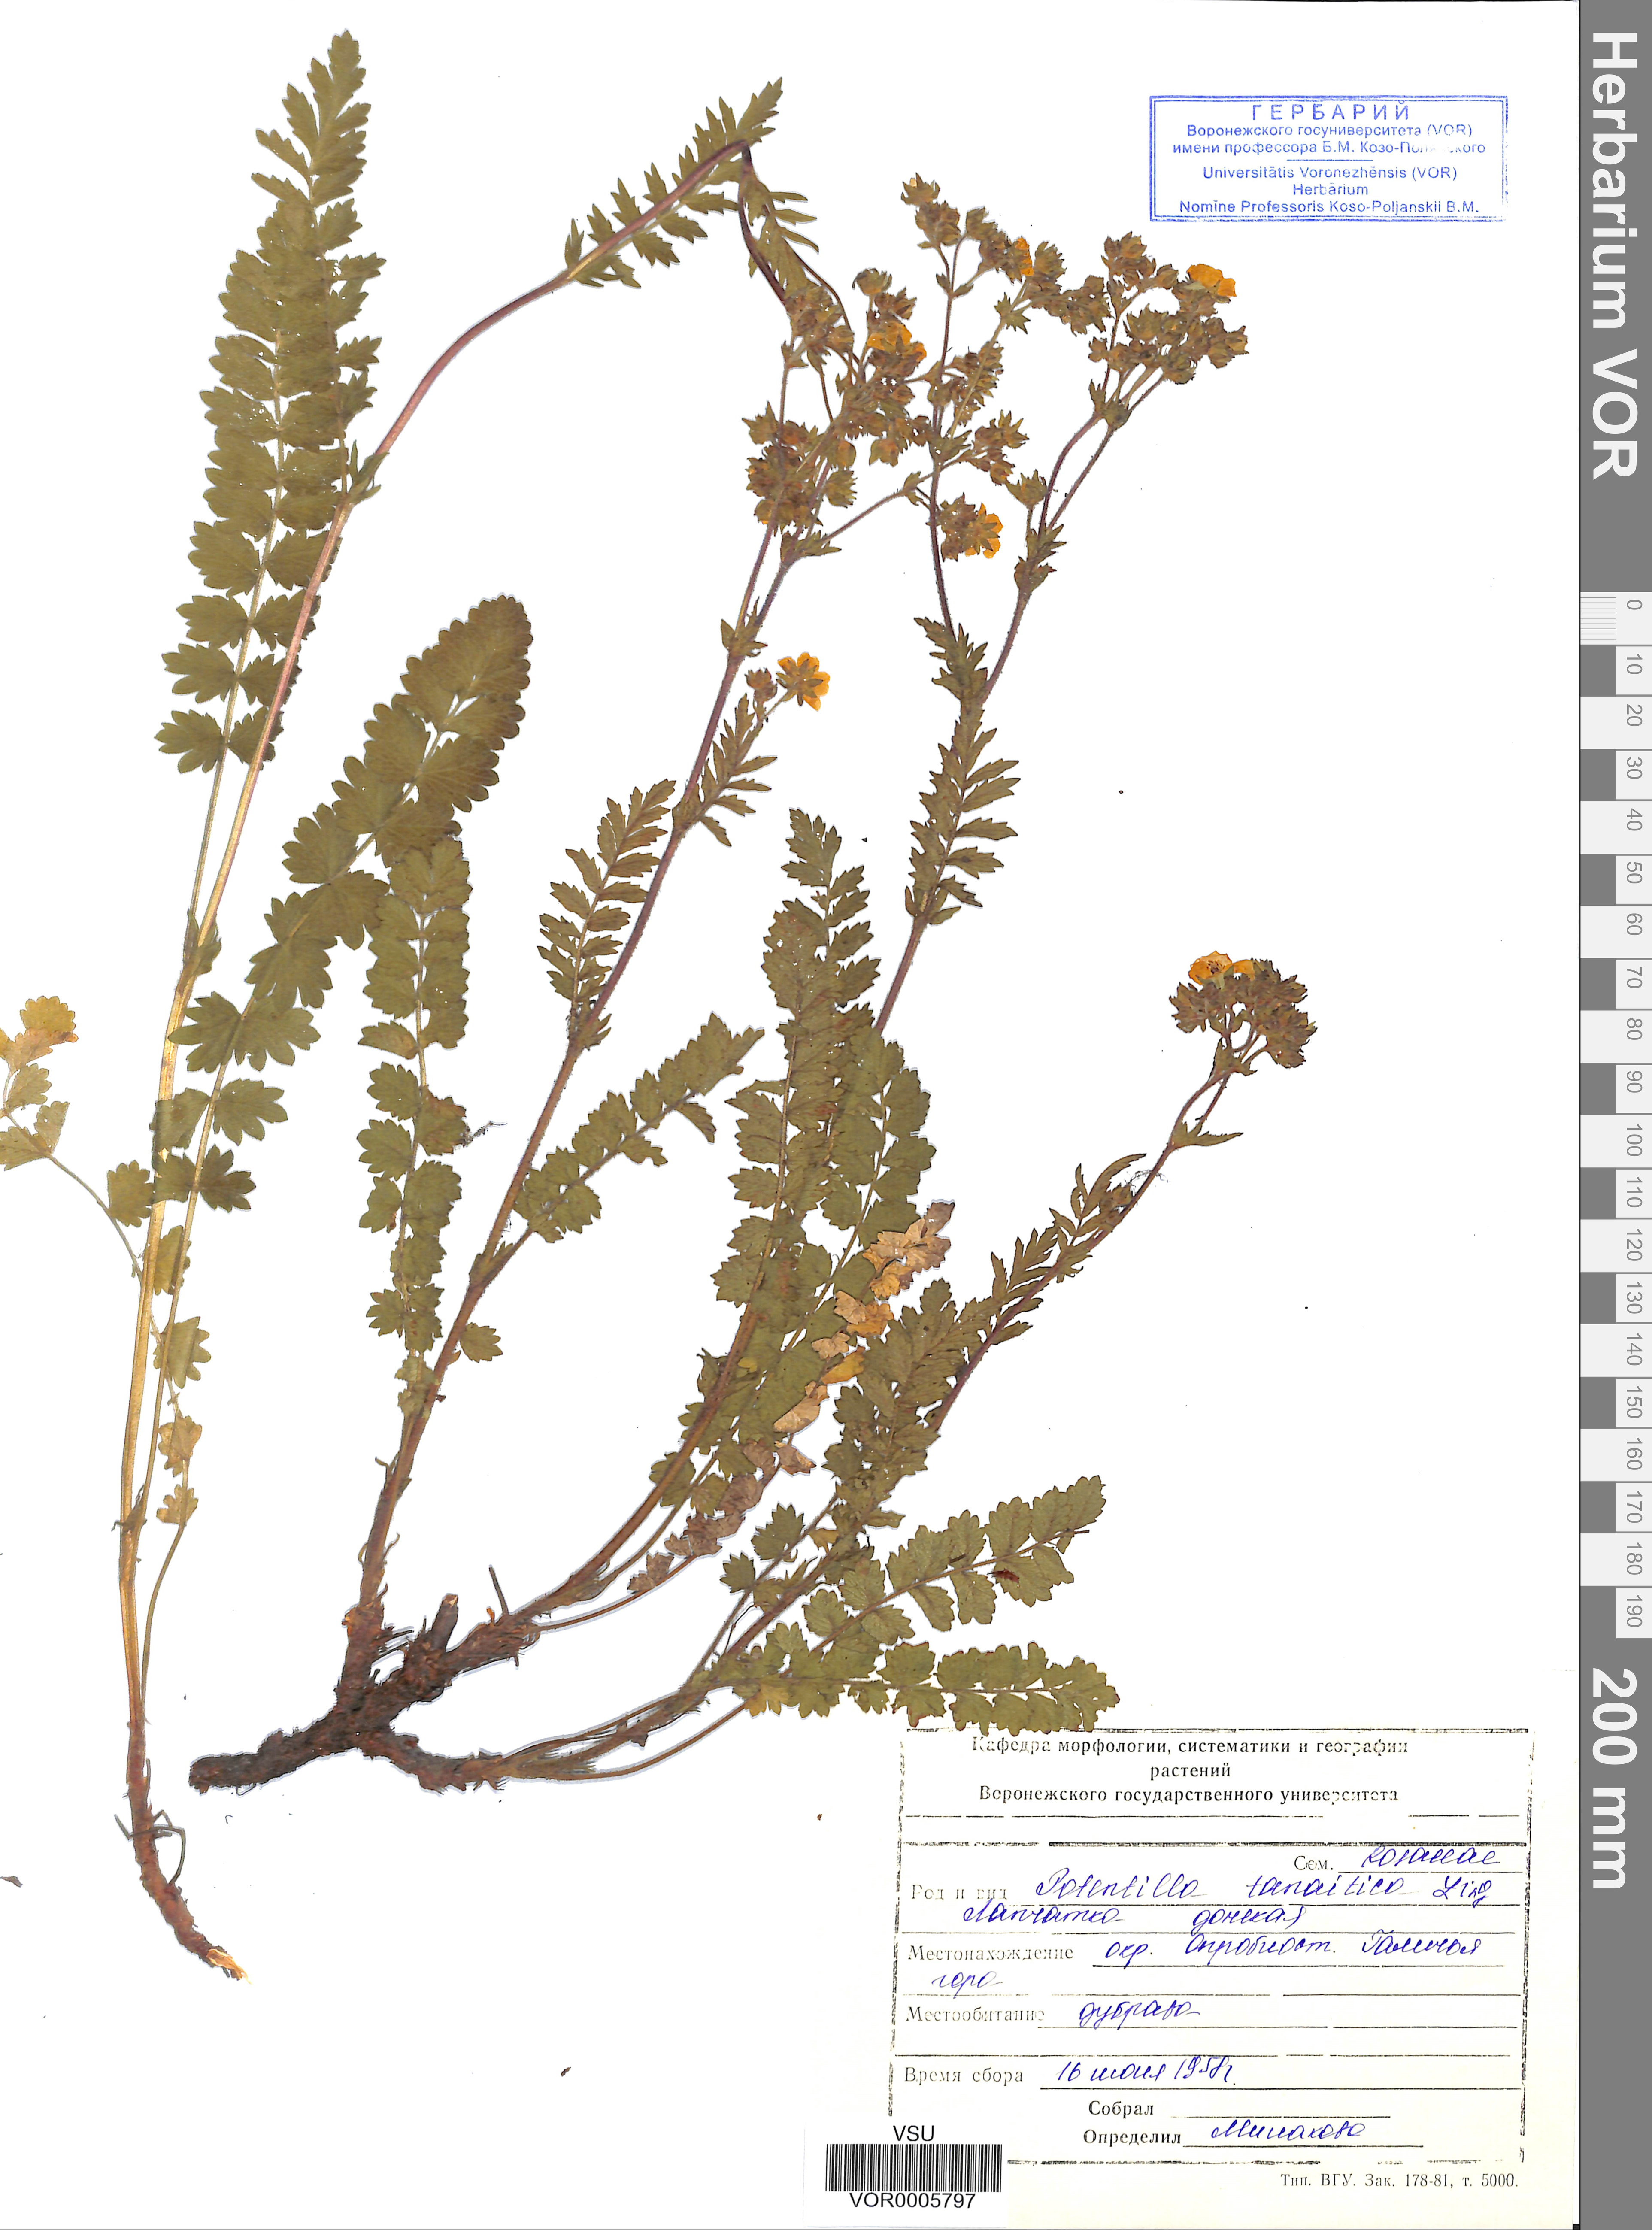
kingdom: Plantae
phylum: Tracheophyta
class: Magnoliopsida
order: Rosales
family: Rosaceae
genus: Potentilla
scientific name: Potentilla tanaitica
